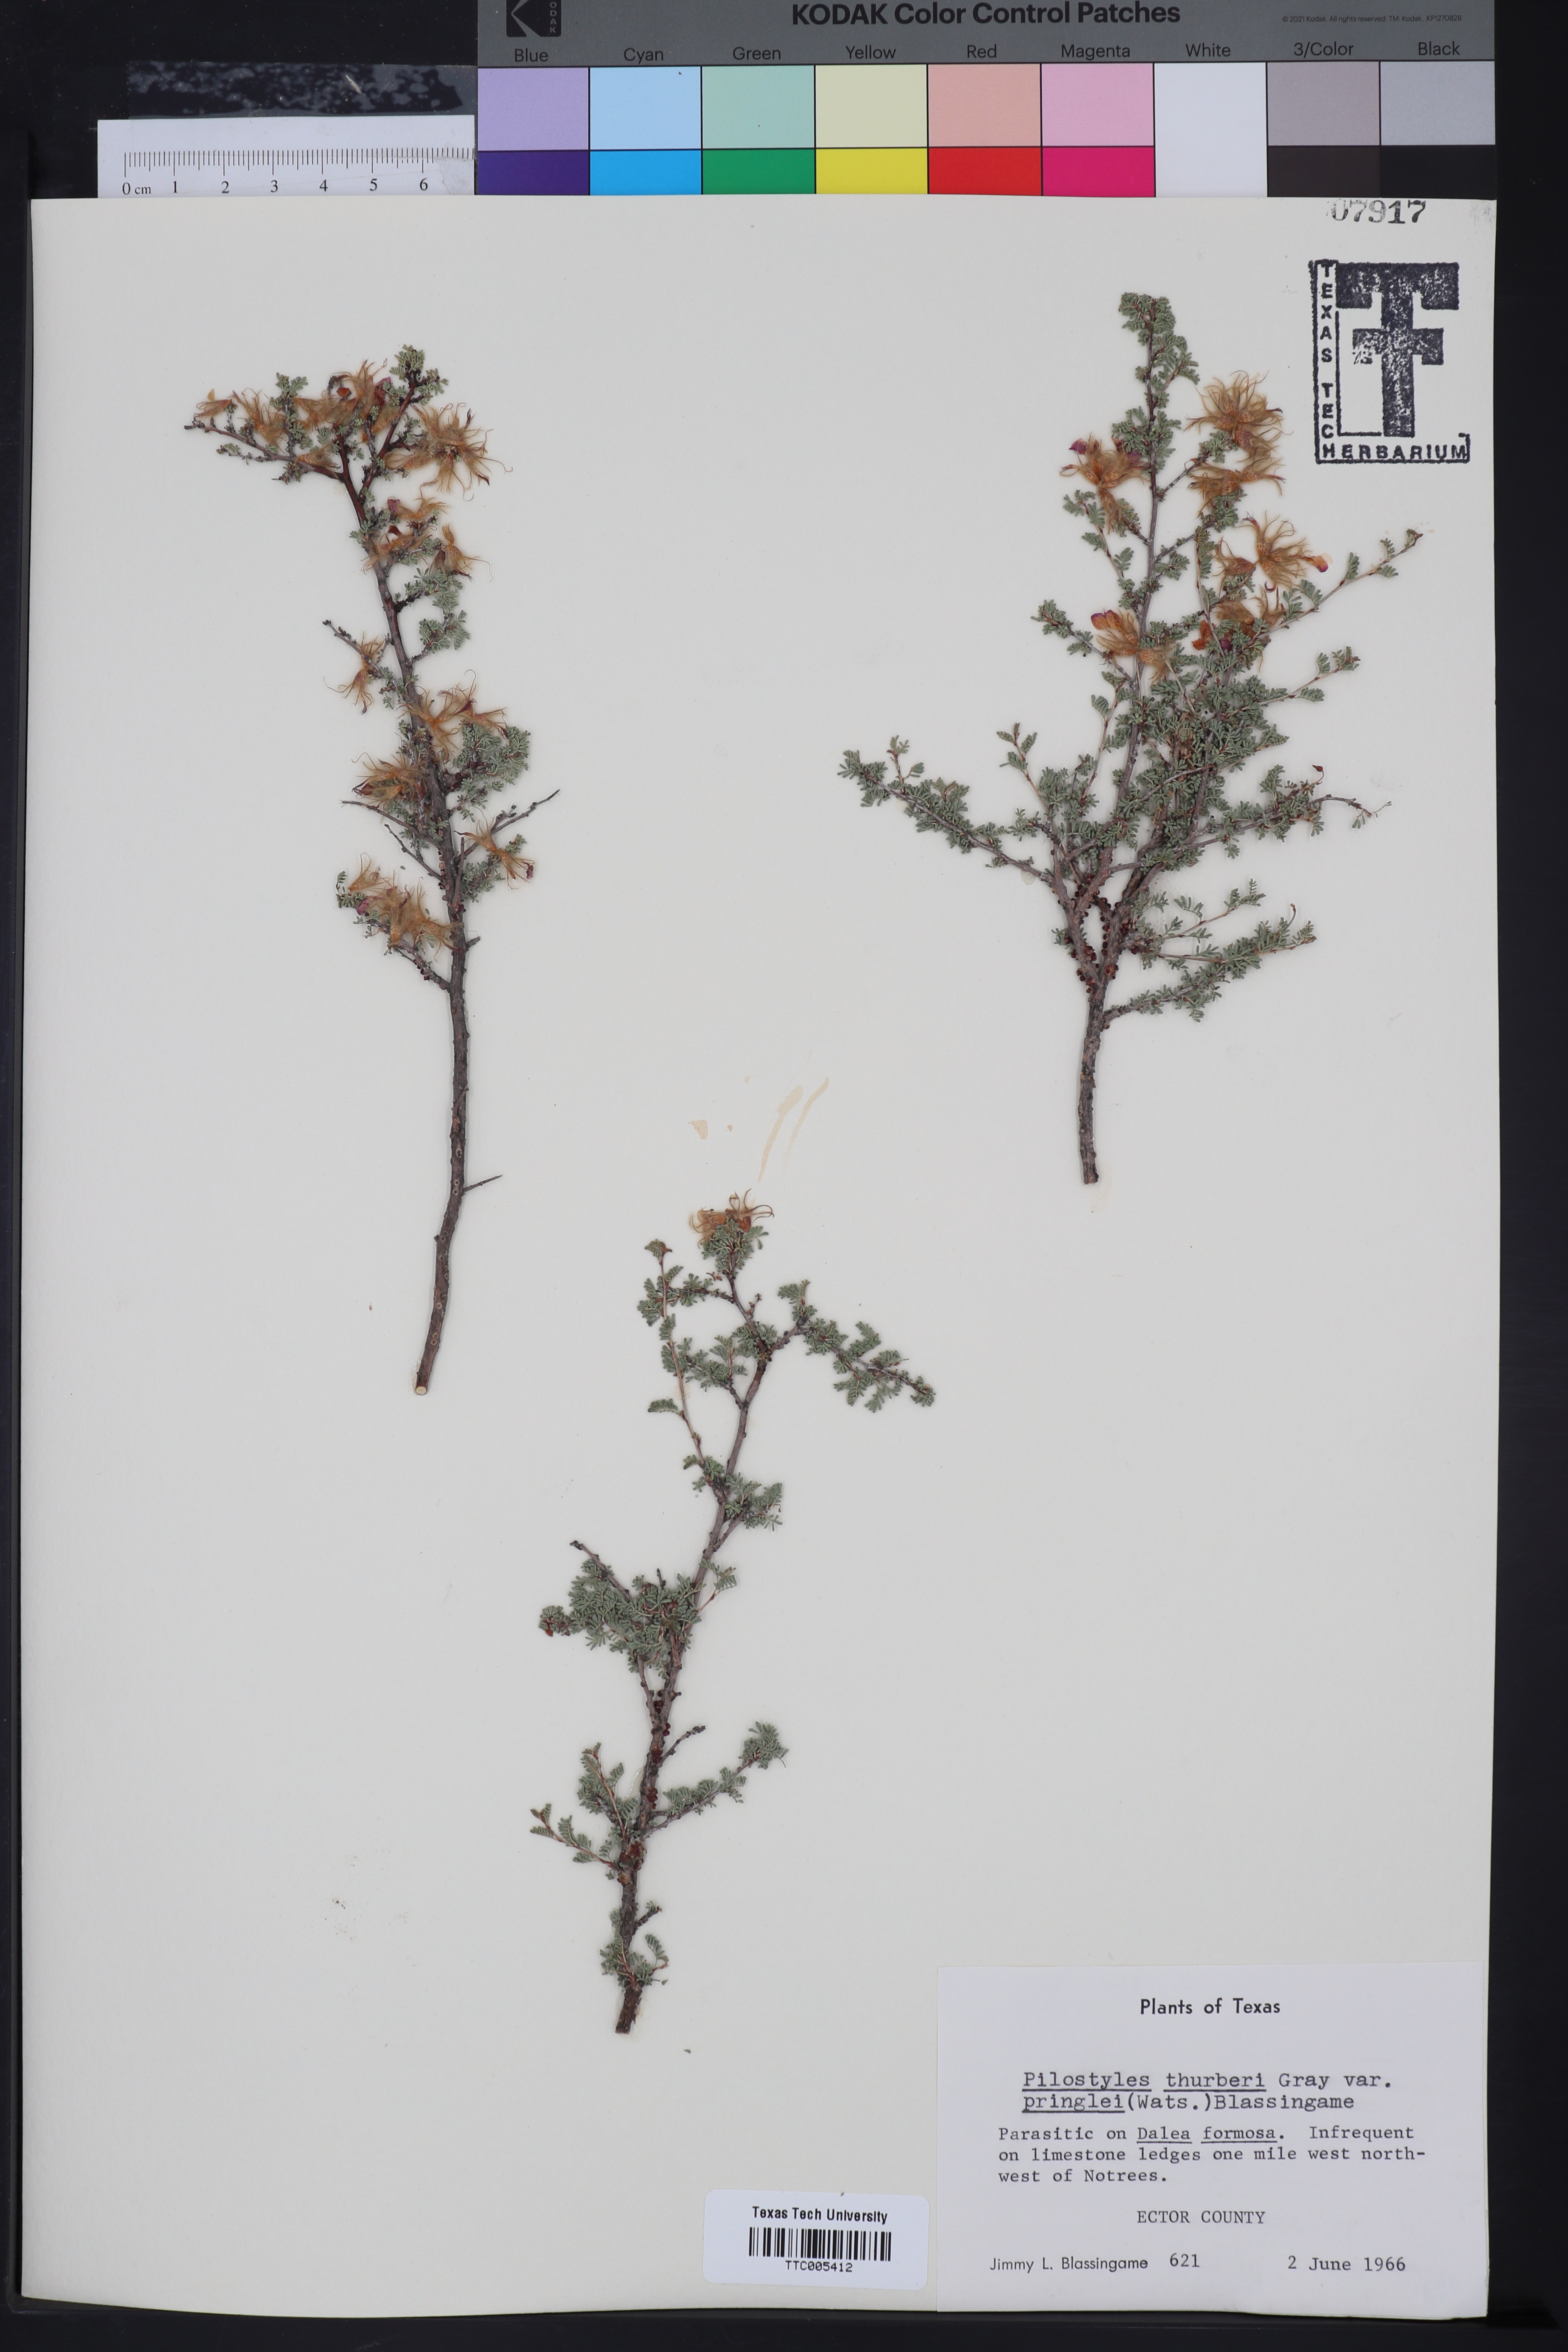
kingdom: Plantae
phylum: Tracheophyta
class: Magnoliopsida
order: Cucurbitales
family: Apodanthaceae
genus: Pilostyles
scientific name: Pilostyles thurberi
